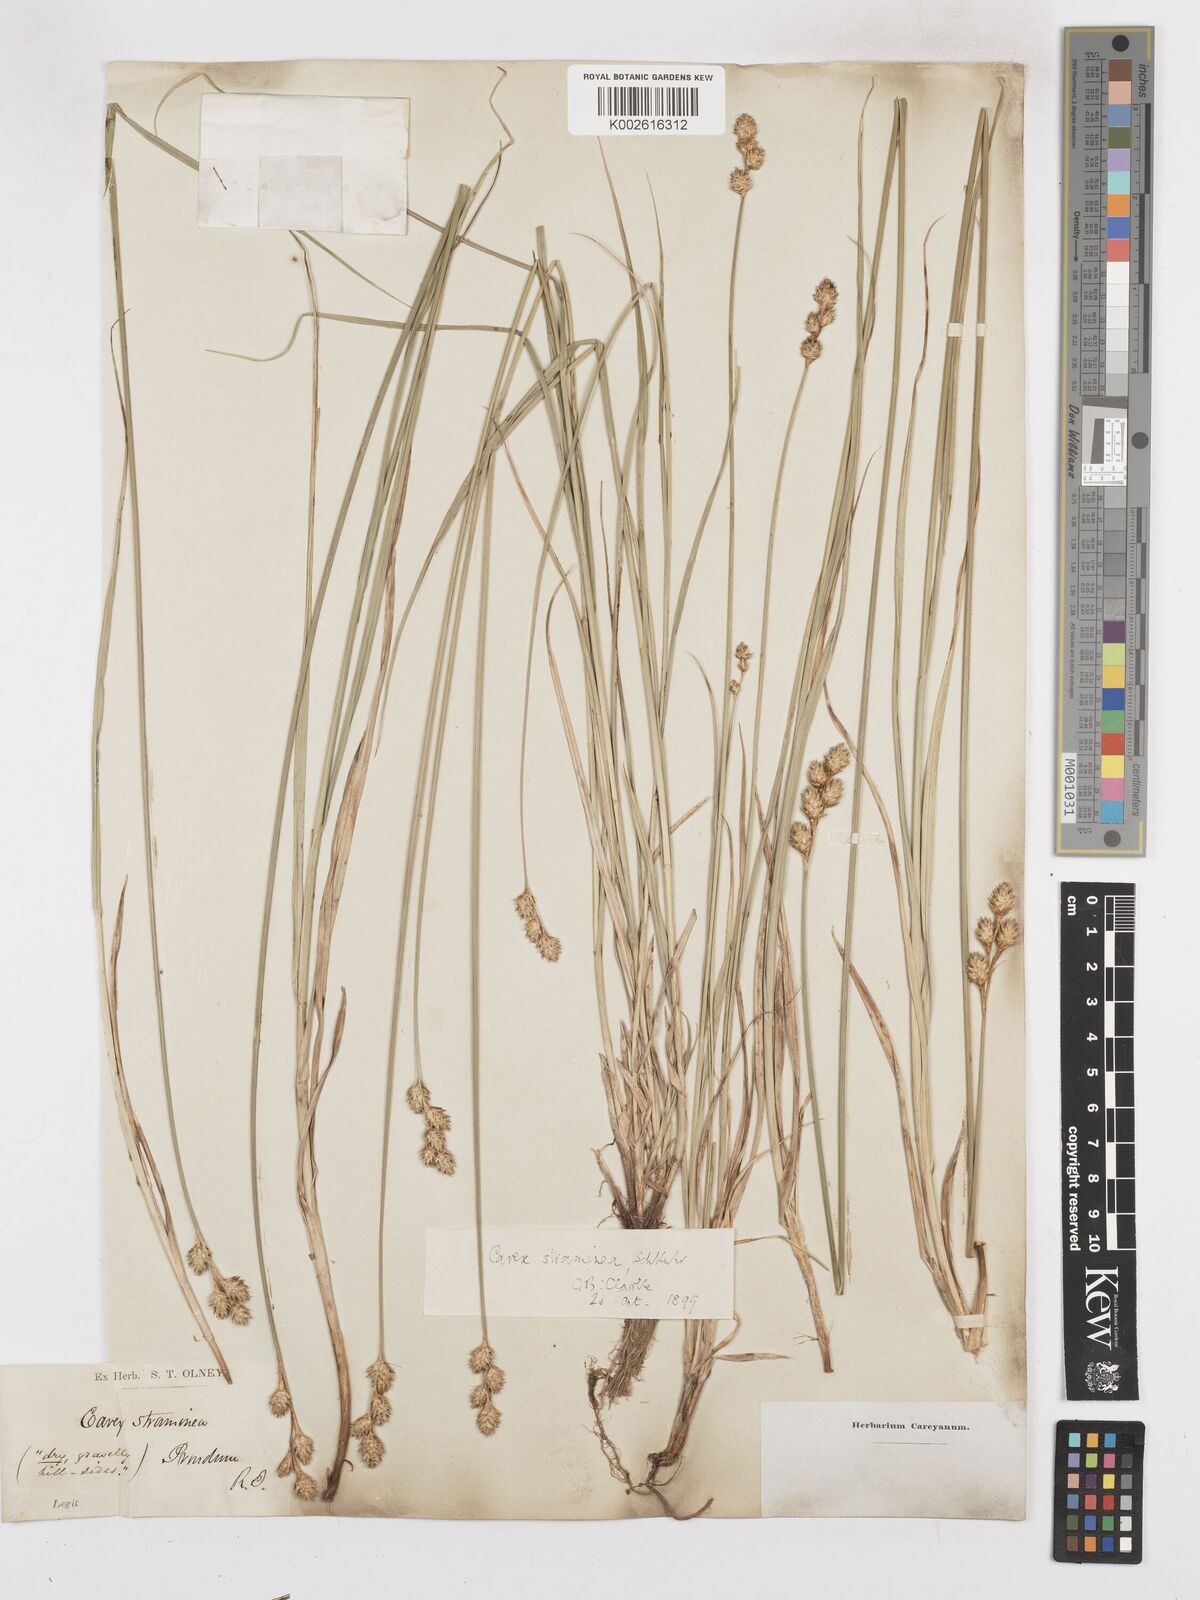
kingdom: Plantae
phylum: Tracheophyta
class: Liliopsida
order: Poales
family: Cyperaceae
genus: Carex
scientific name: Carex albolutescens
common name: Freenish white sedge
